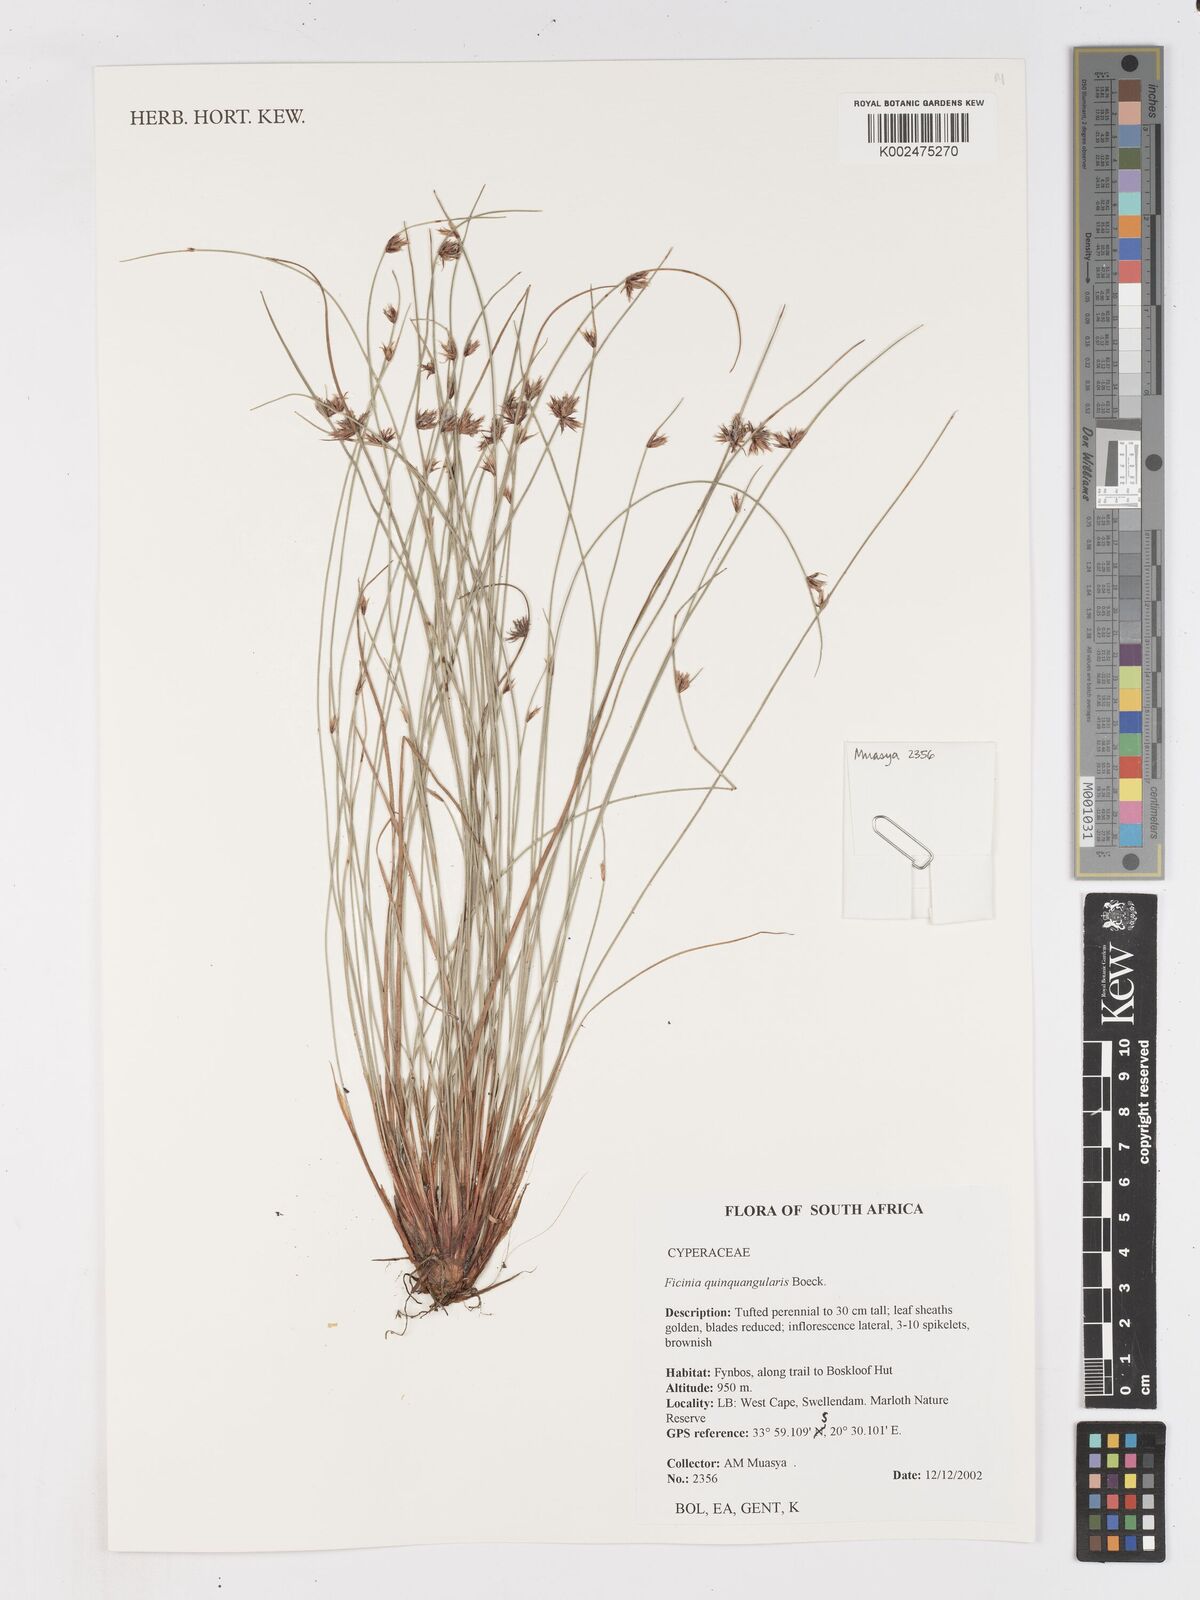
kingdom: Plantae
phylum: Tracheophyta
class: Liliopsida
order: Poales
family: Cyperaceae
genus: Ficinia
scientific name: Ficinia quinquangularis
